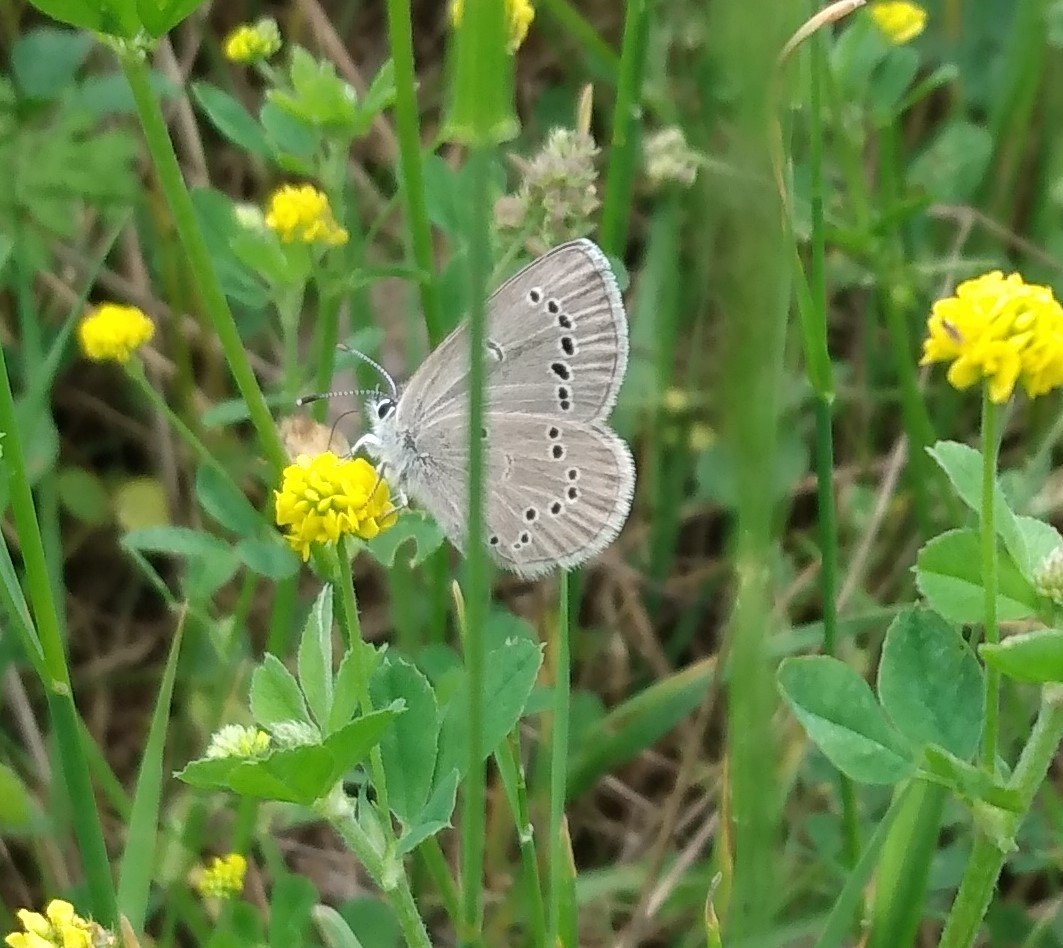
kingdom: Animalia
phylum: Arthropoda
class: Insecta
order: Lepidoptera
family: Lycaenidae
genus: Glaucopsyche
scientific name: Glaucopsyche lygdamus
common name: Silvery Blue
